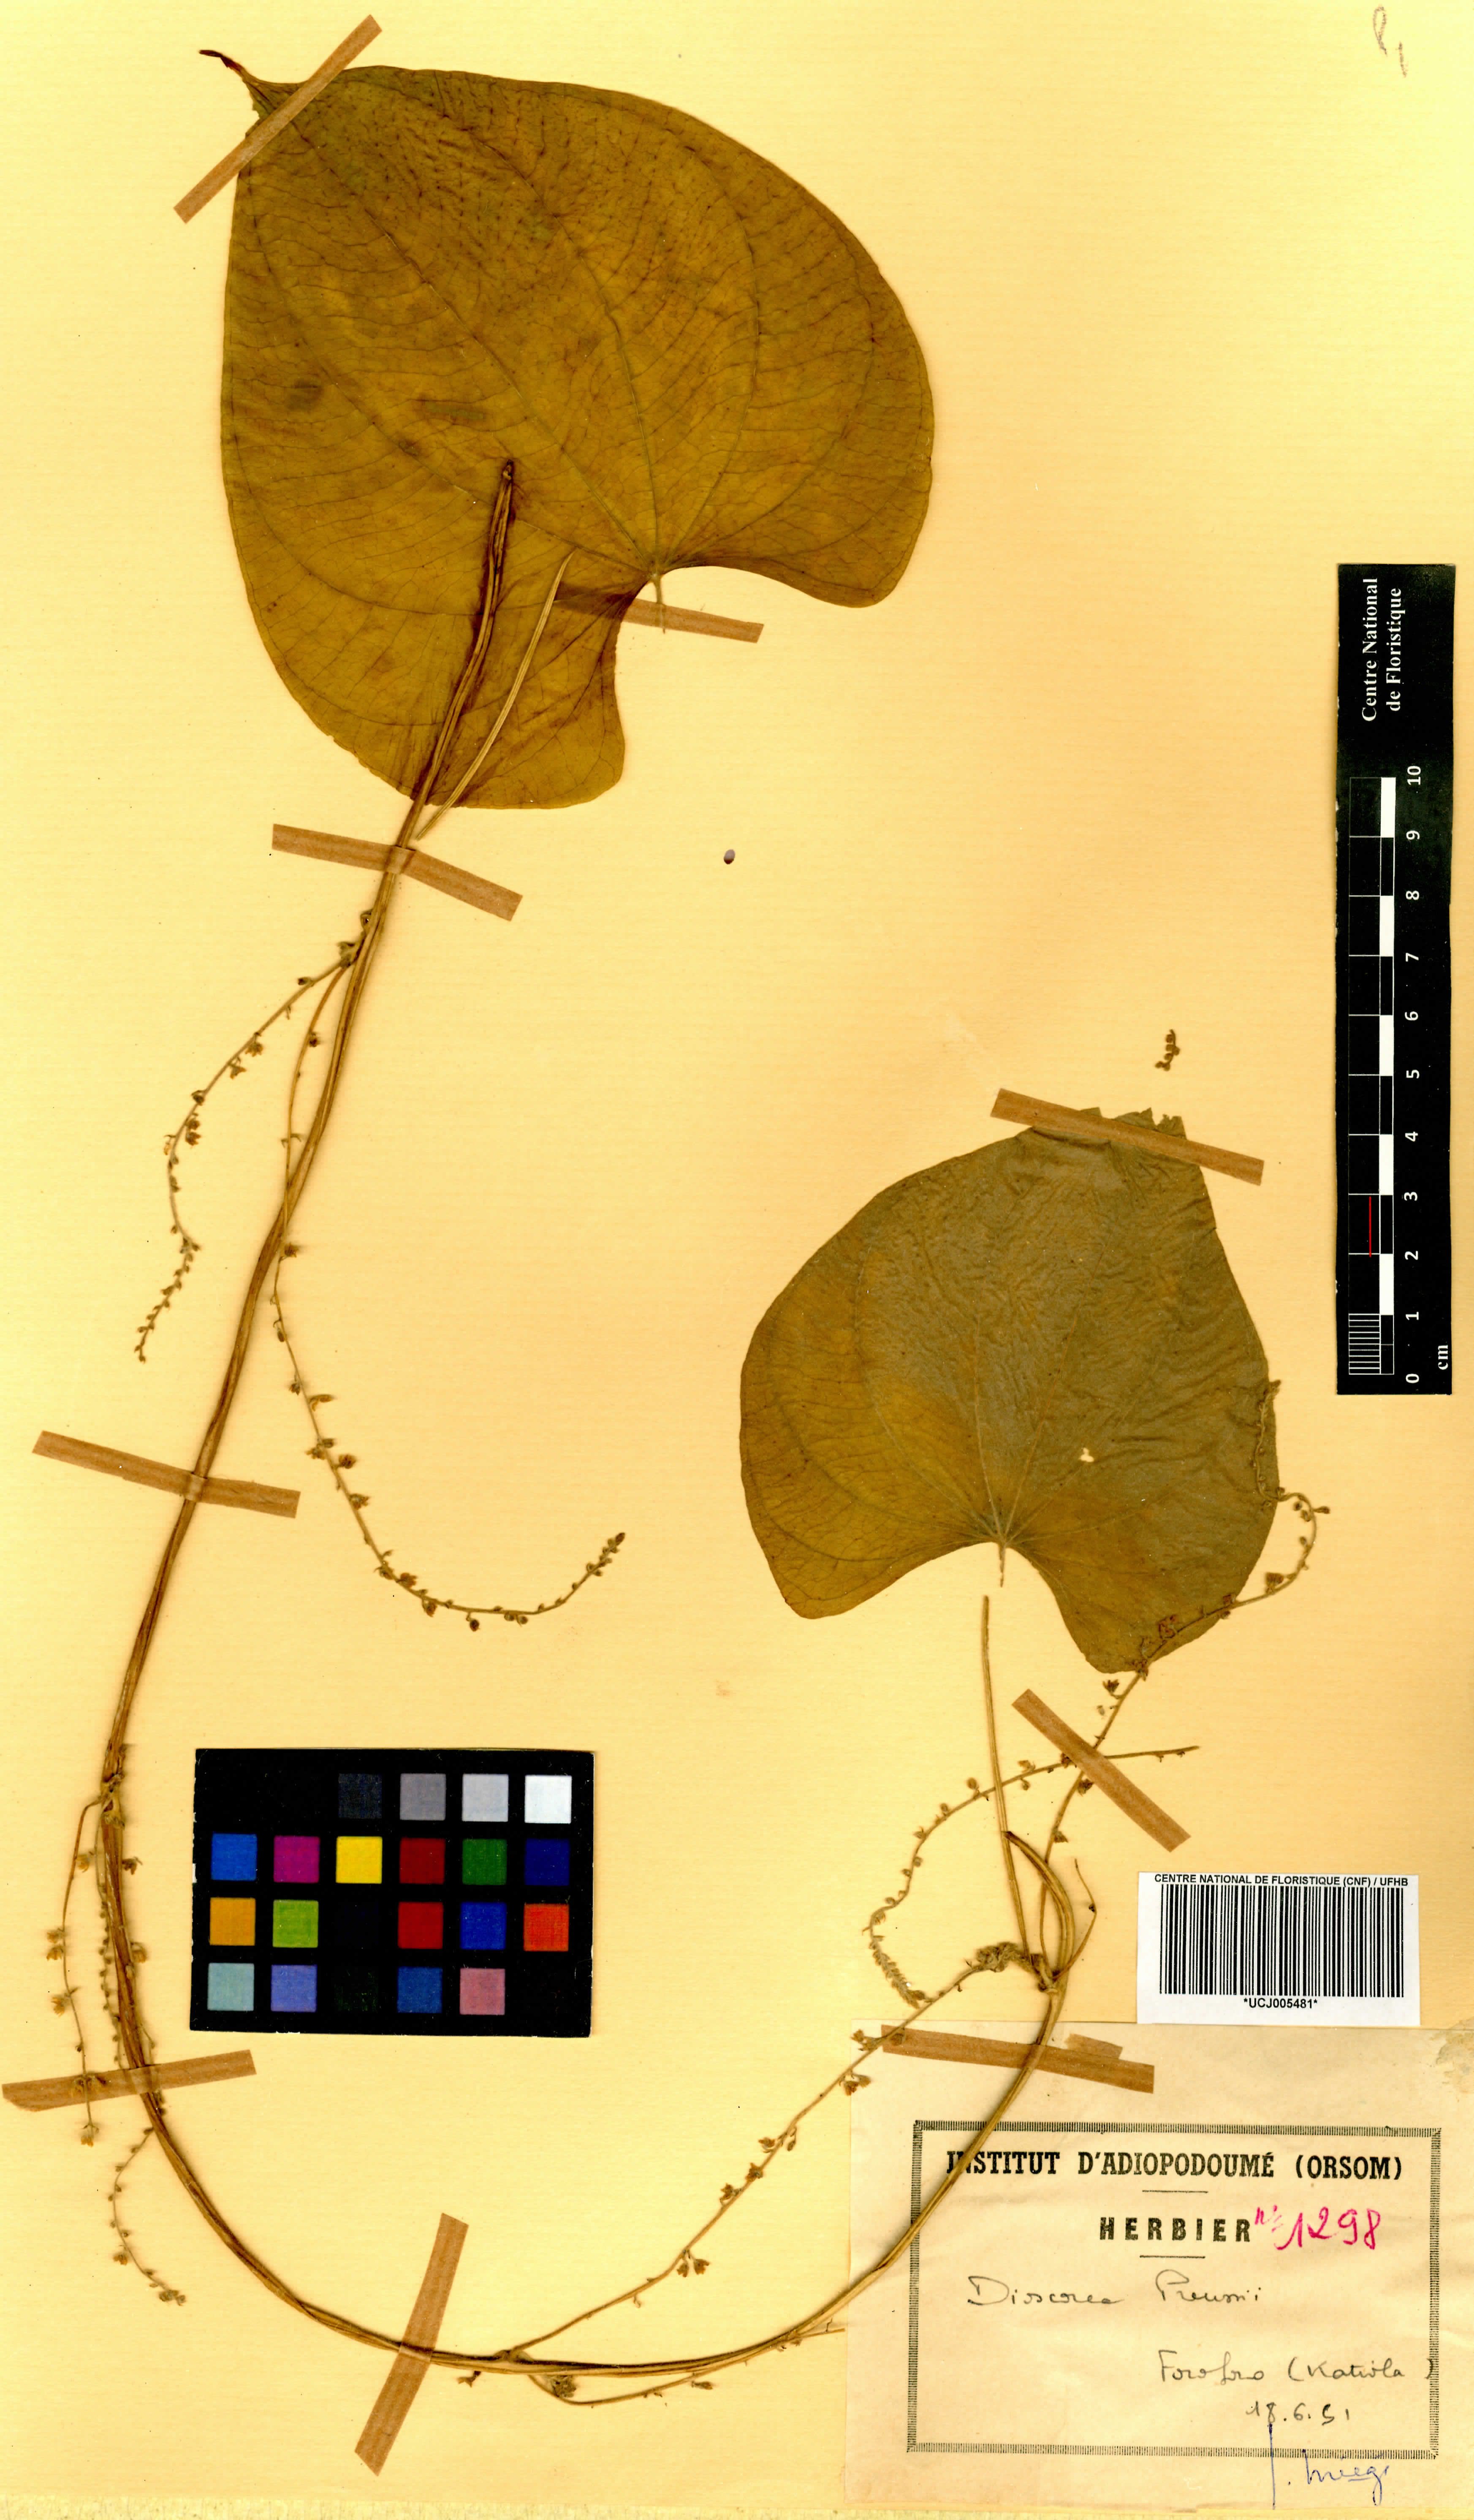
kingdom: Plantae
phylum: Tracheophyta
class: Liliopsida
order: Dioscoreales
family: Dioscoreaceae
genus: Dioscorea
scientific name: Dioscorea preussii
